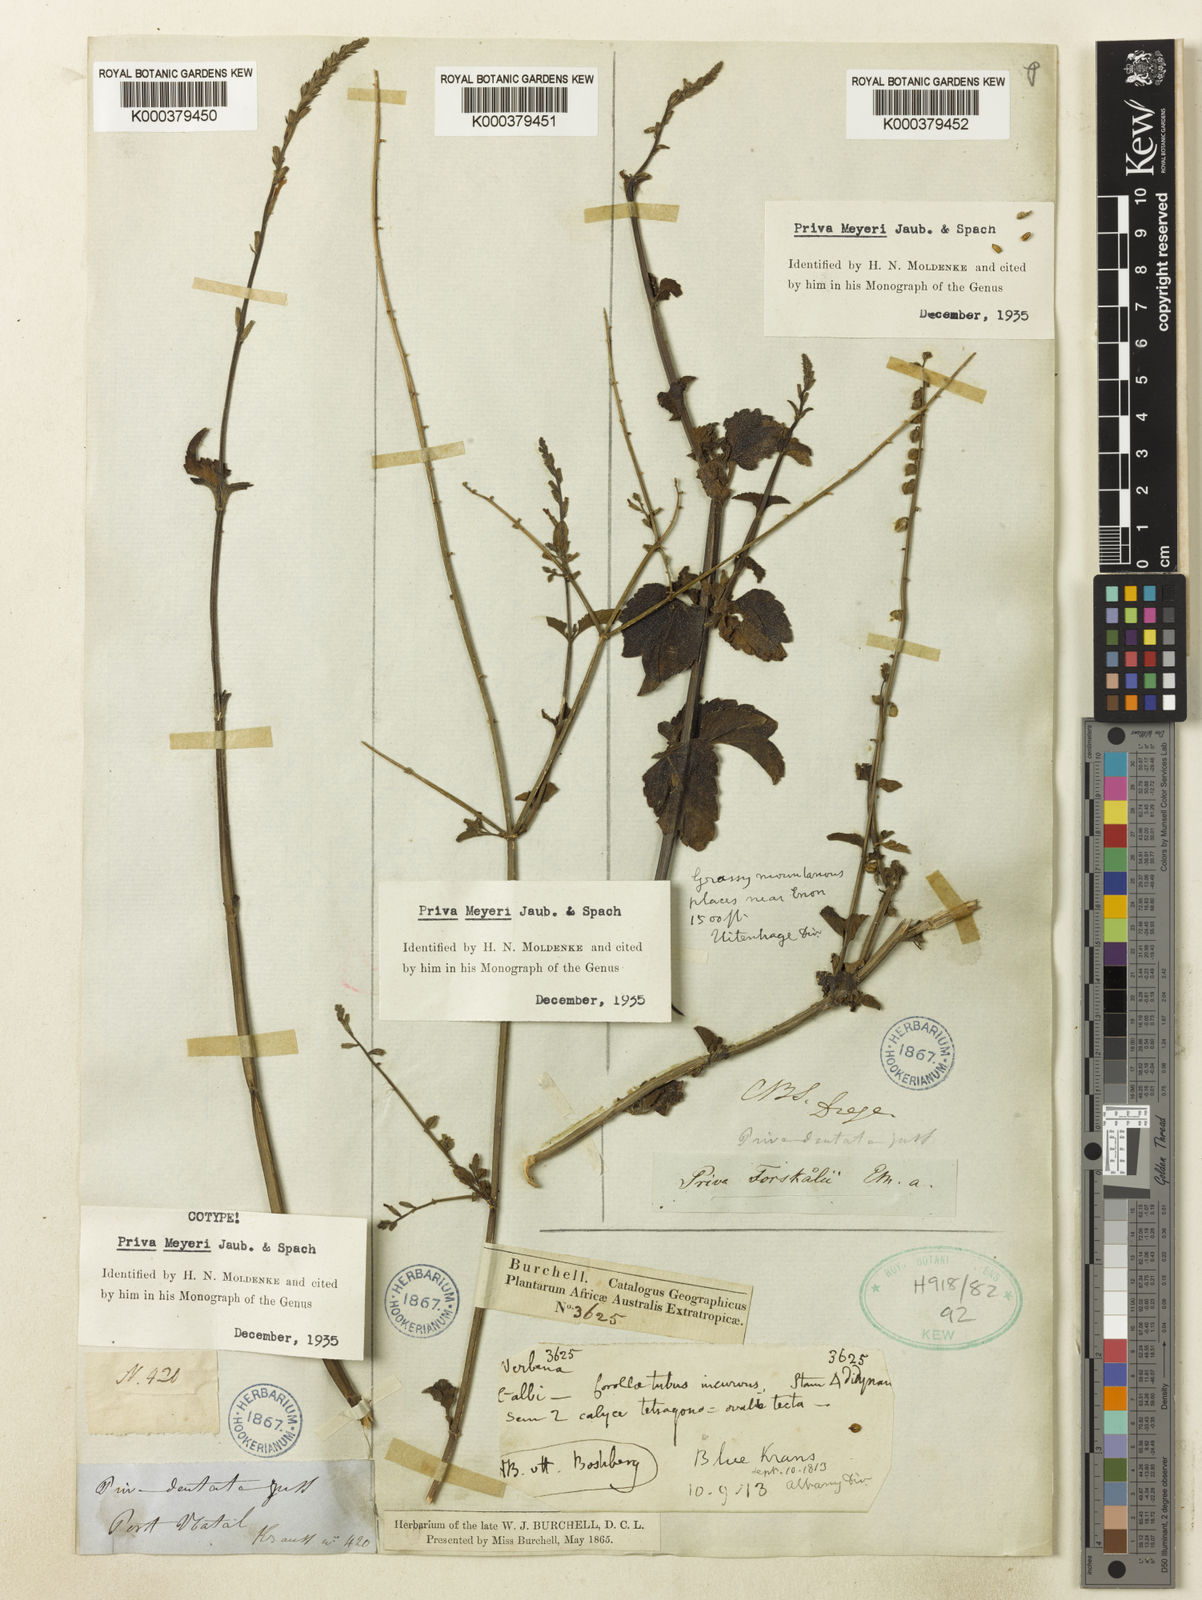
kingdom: Plantae
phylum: Tracheophyta
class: Magnoliopsida
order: Lamiales
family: Verbenaceae
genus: Priva
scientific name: Priva meyeri
